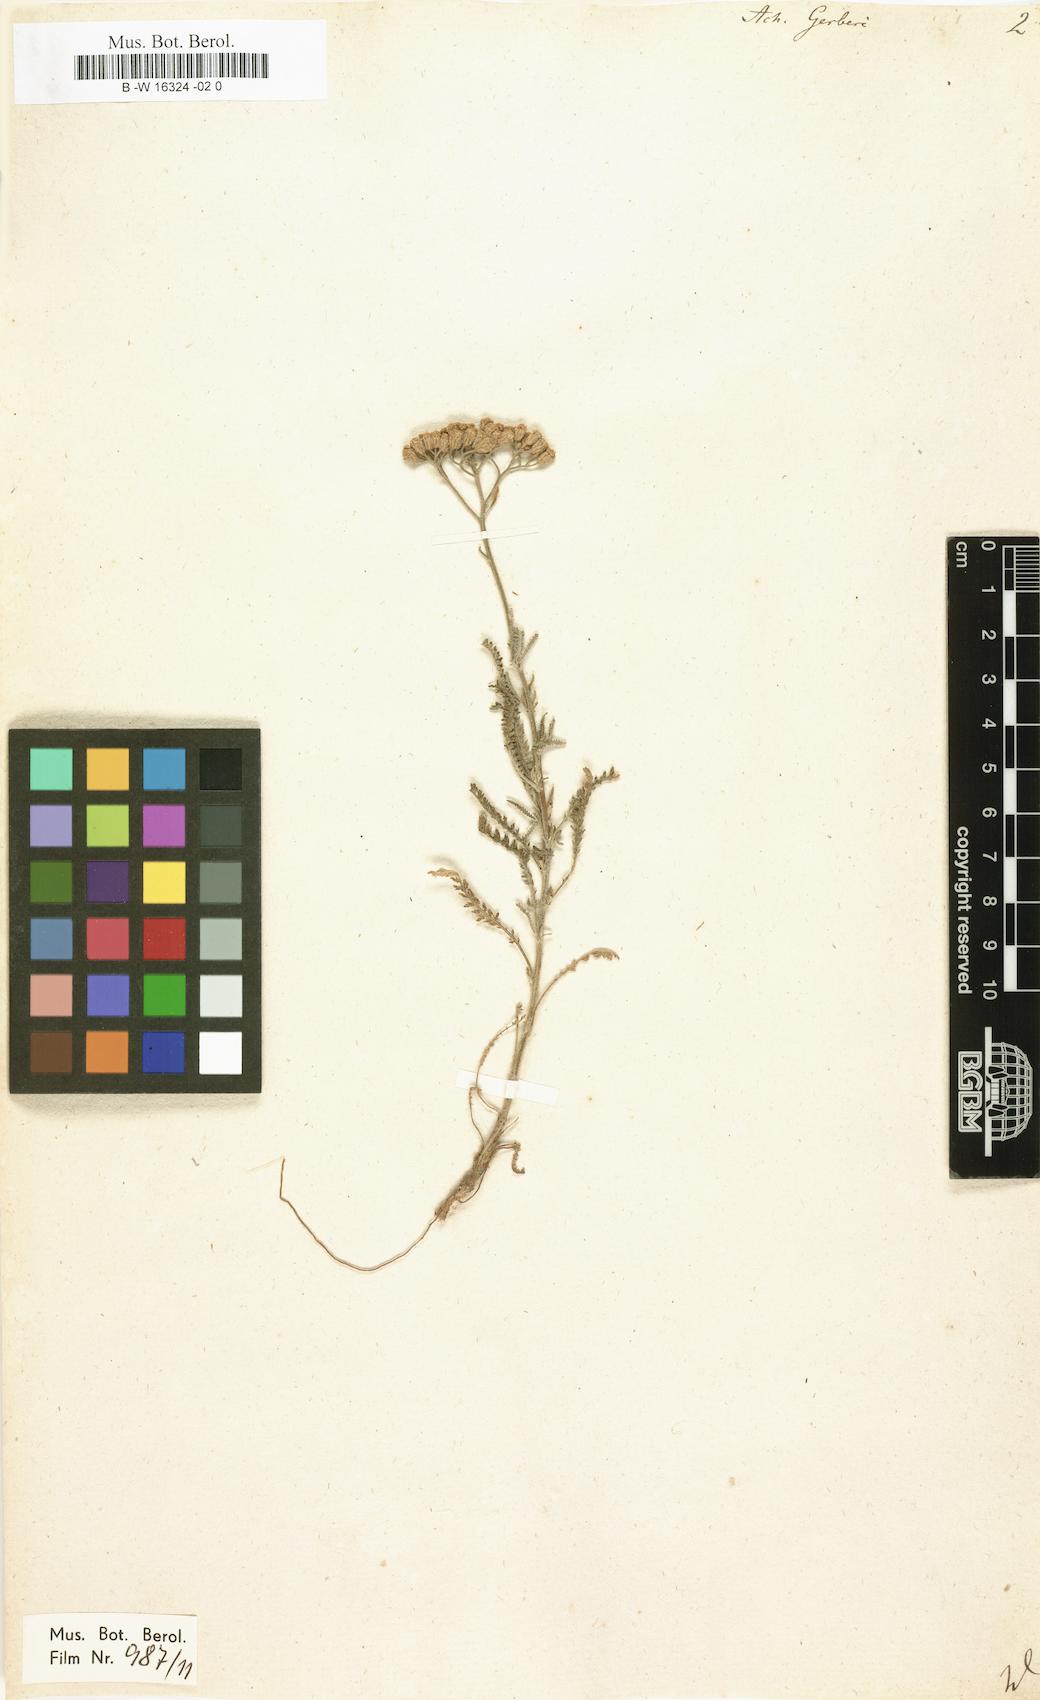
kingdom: Plantae
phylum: Tracheophyta
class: Magnoliopsida
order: Asterales
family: Asteraceae
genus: Achillea
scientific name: Achillea micrantha
